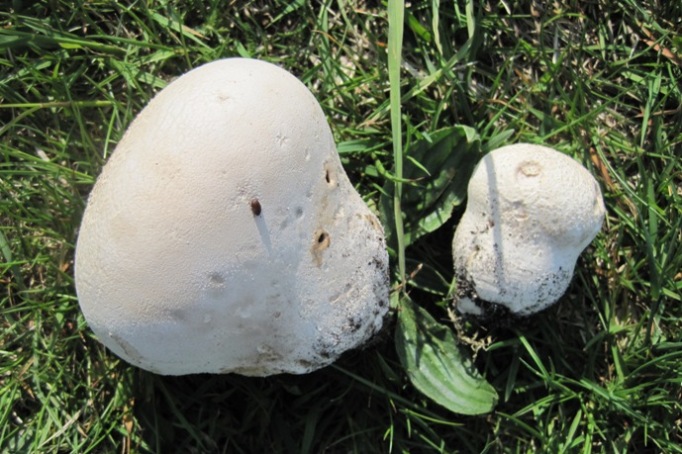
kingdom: Fungi
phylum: Basidiomycota
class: Agaricomycetes
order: Agaricales
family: Lycoperdaceae
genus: Bovistella
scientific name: Bovistella utriformis
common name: skællet støvbold
